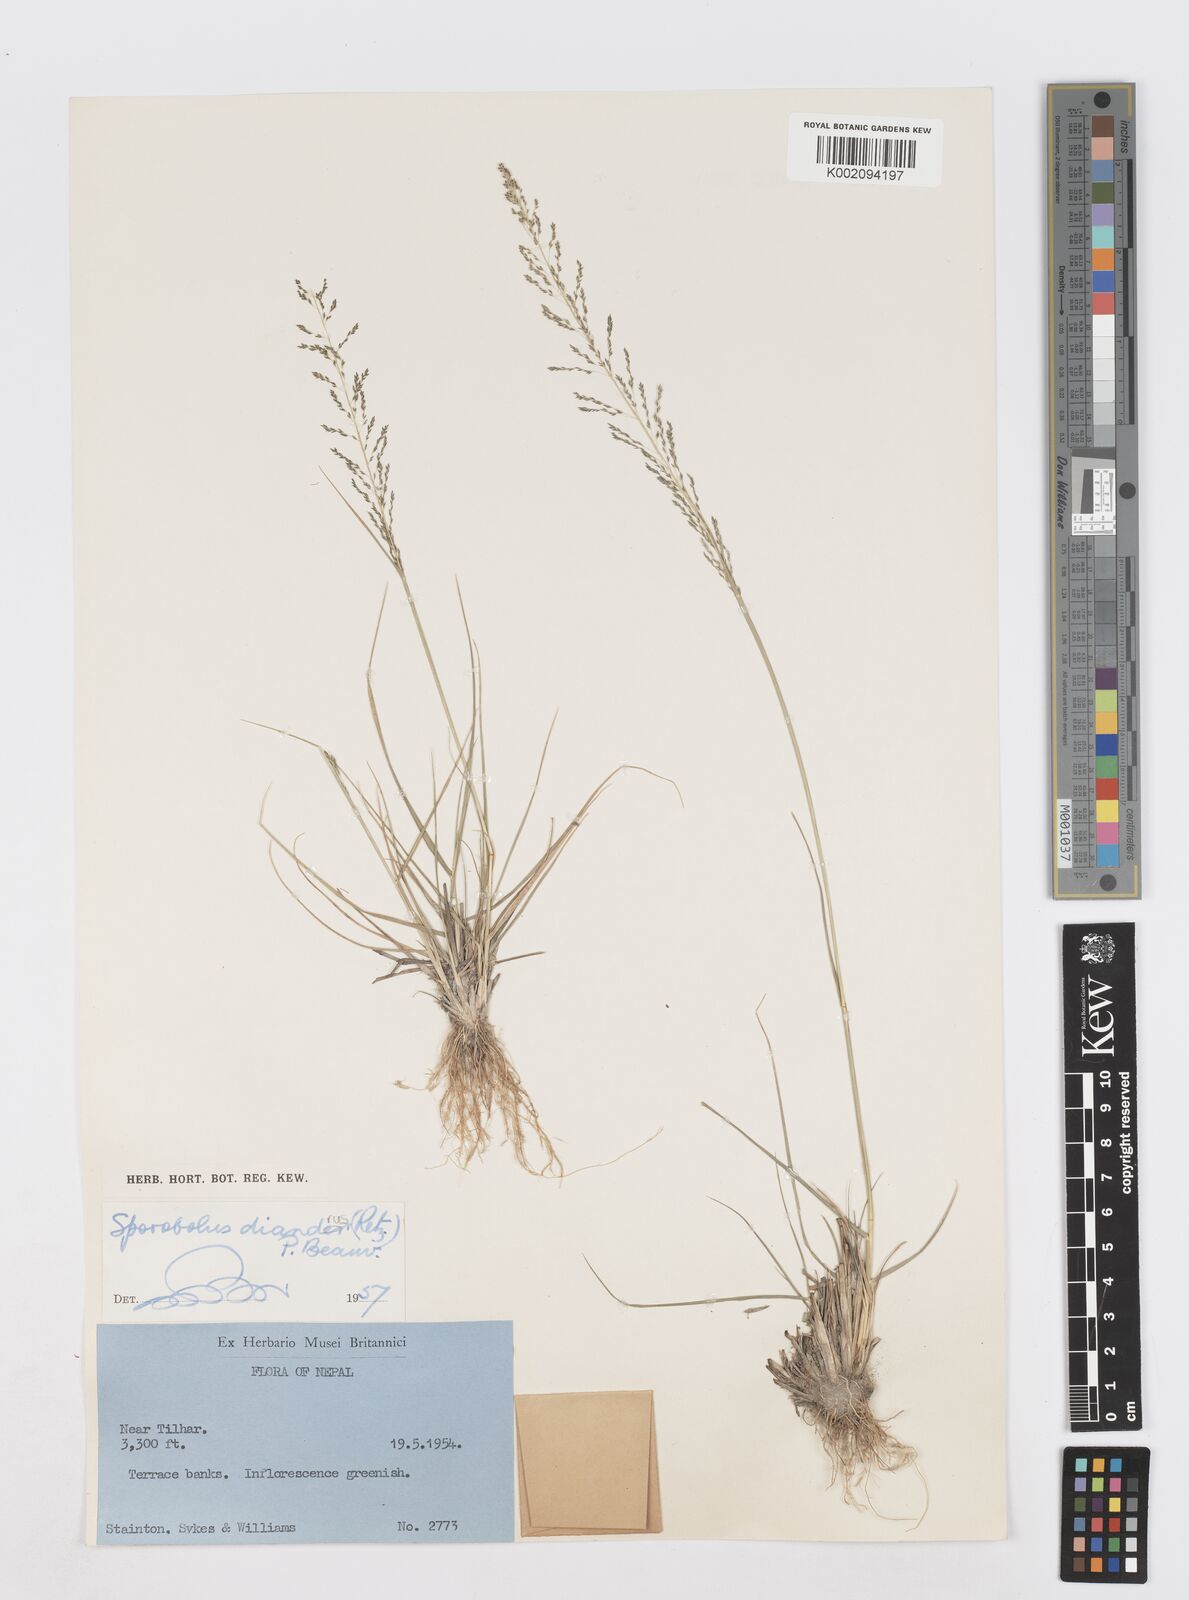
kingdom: Plantae
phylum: Tracheophyta
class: Liliopsida
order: Poales
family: Poaceae
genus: Sporobolus
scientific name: Sporobolus diandrus
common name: Tussock dropseed
